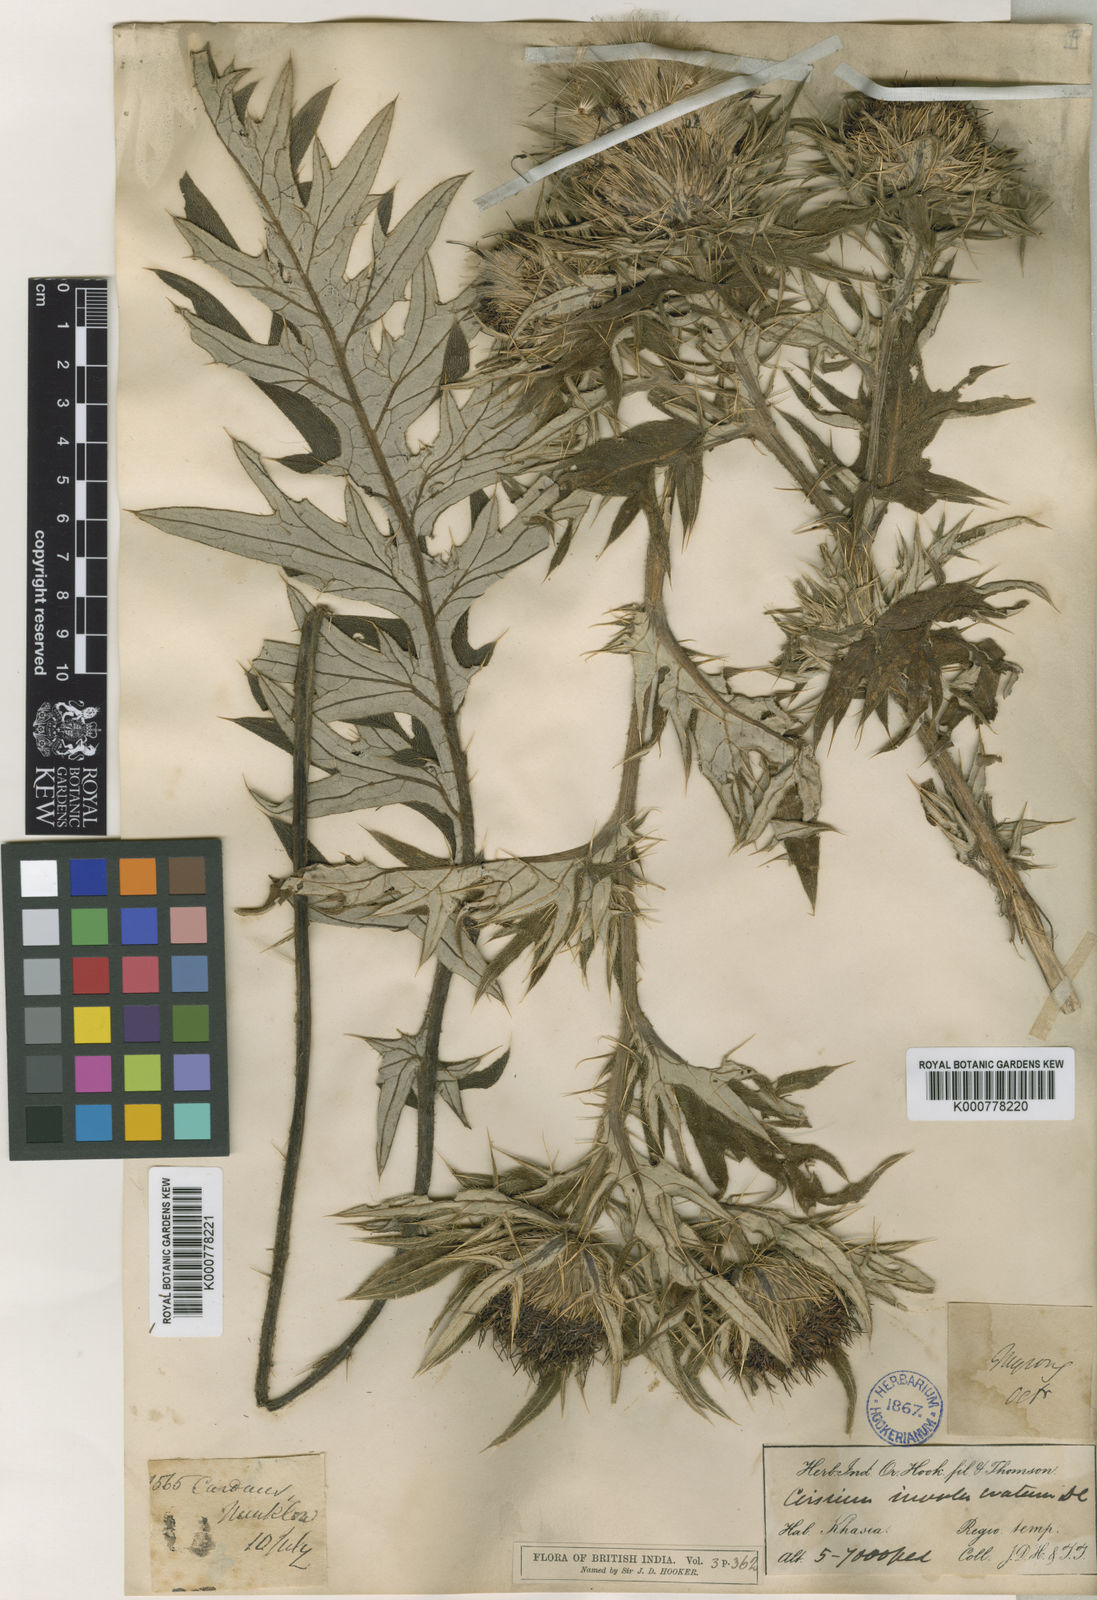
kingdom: Plantae
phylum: Tracheophyta
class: Magnoliopsida
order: Asterales
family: Asteraceae
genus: Lophiolepis
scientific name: Lophiolepis veruta
